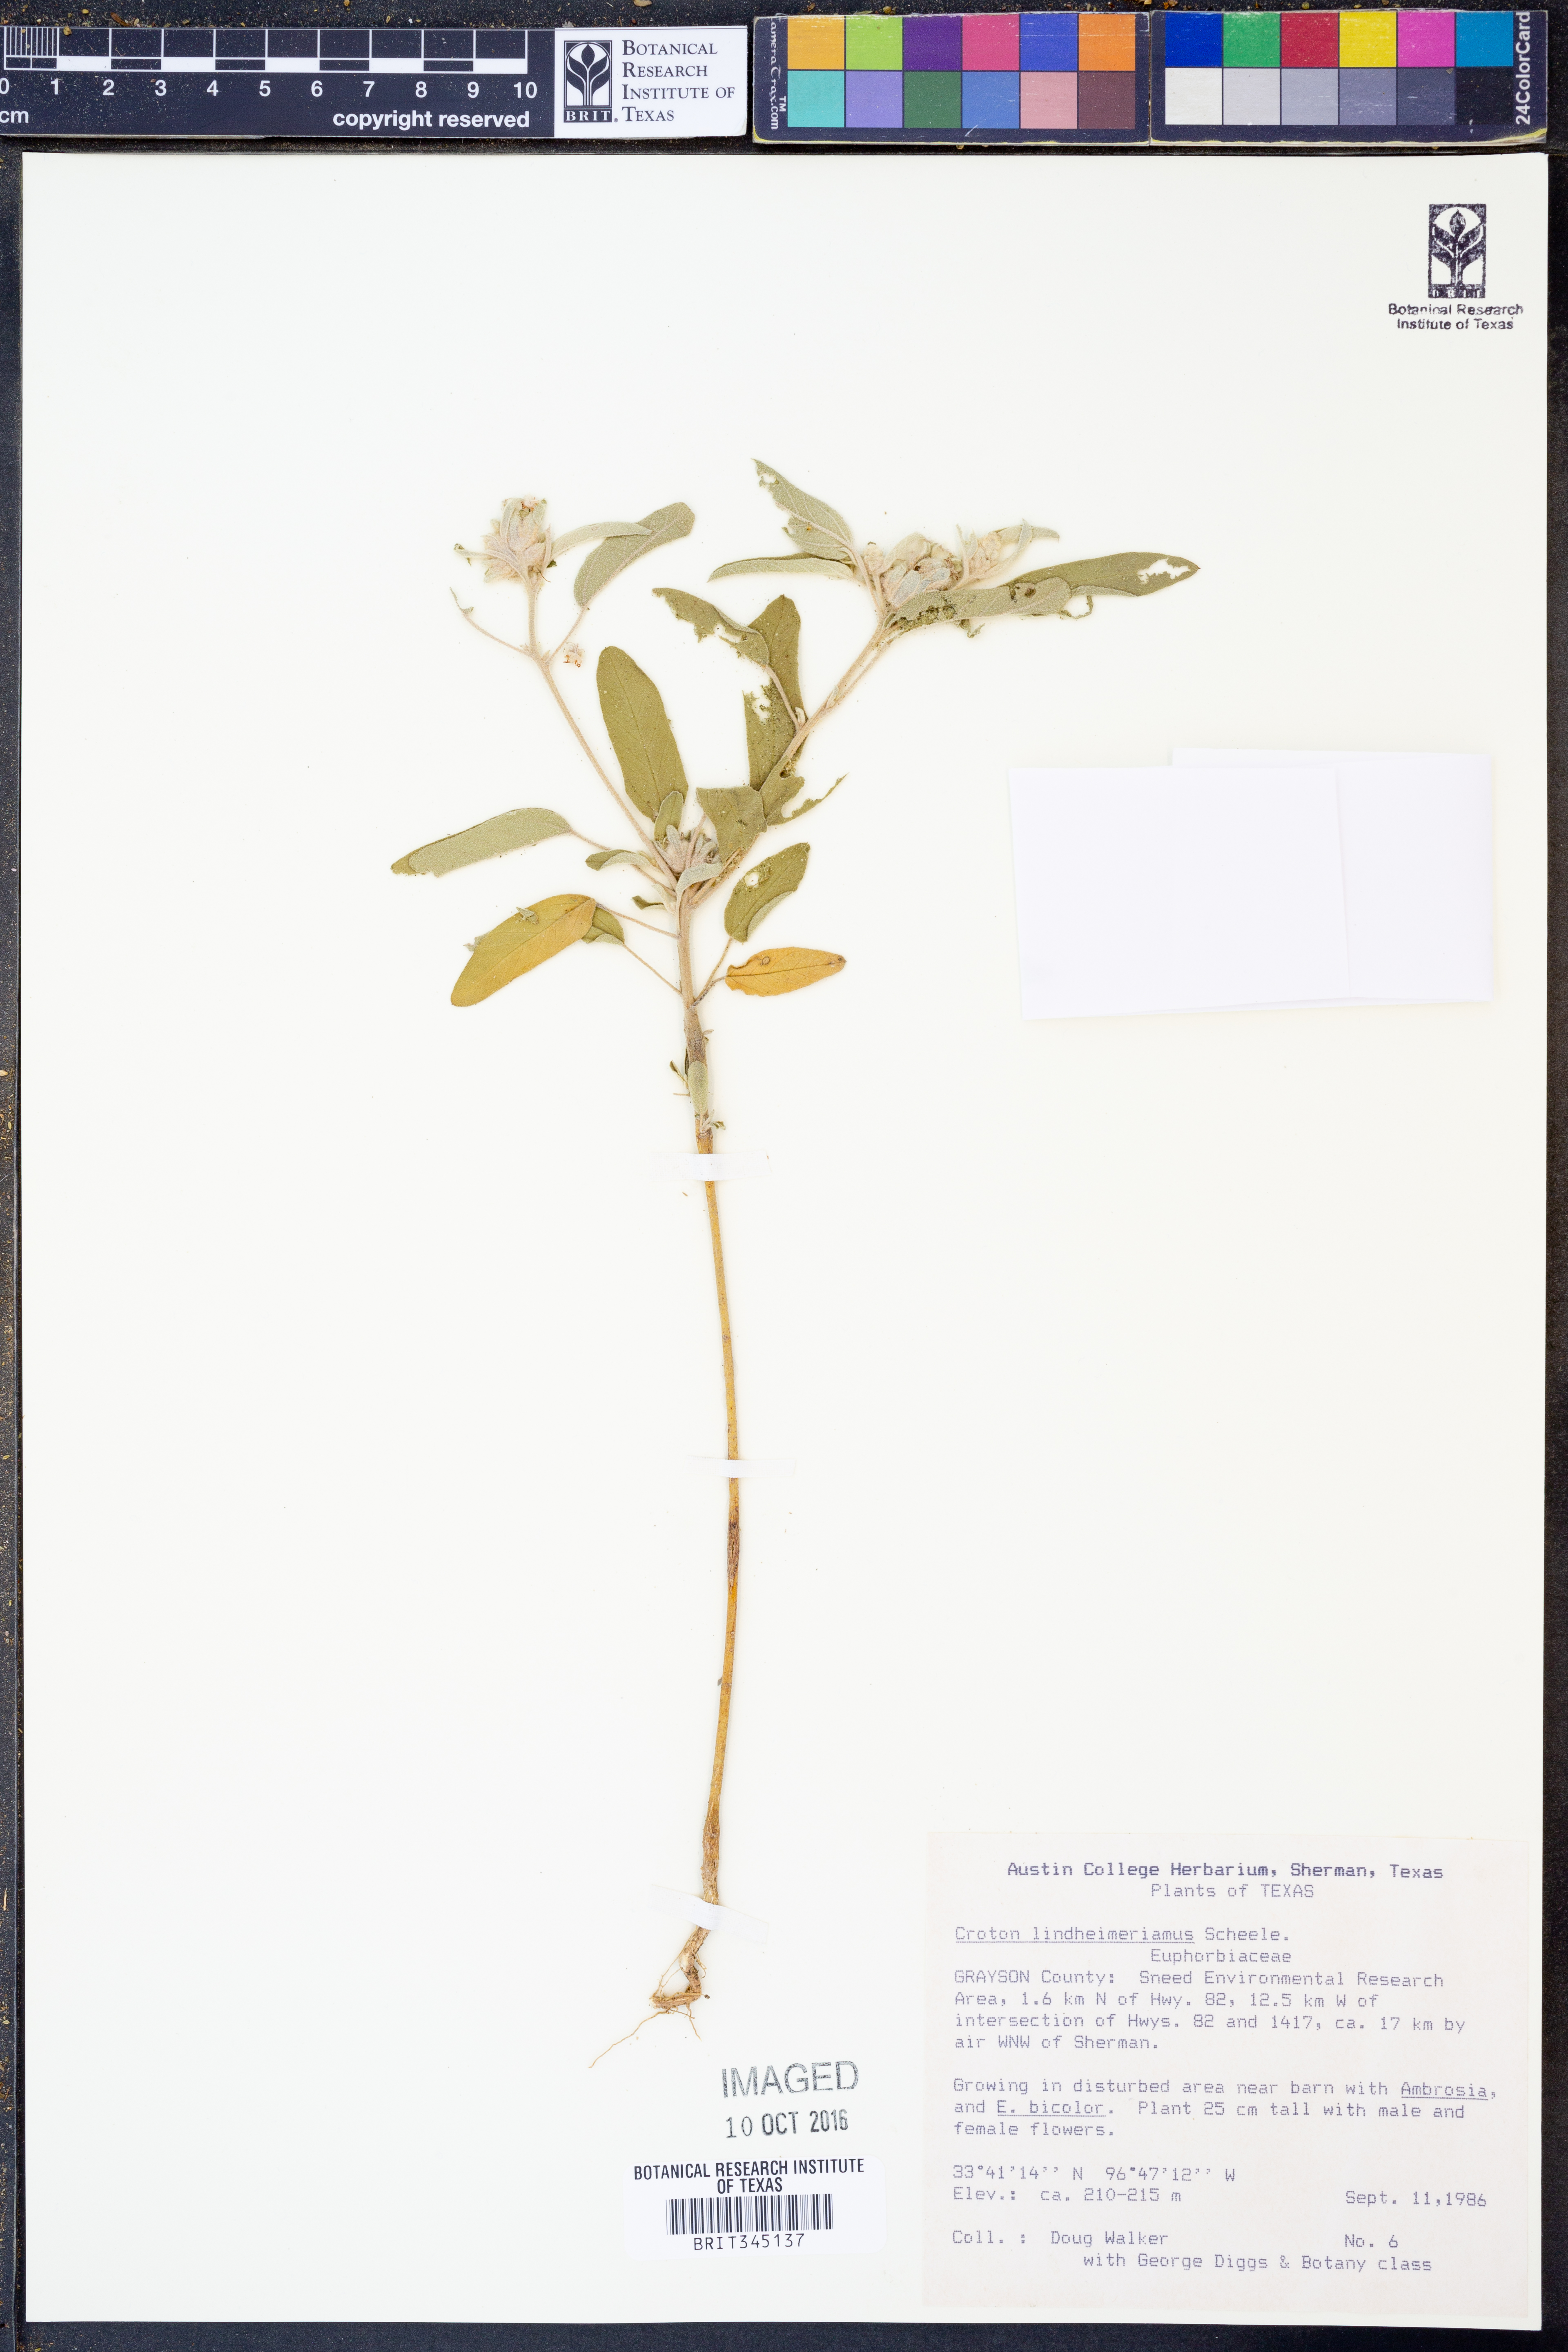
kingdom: Plantae
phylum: Tracheophyta
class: Magnoliopsida
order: Malpighiales
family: Euphorbiaceae
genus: Croton
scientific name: Croton lindheimerianus
